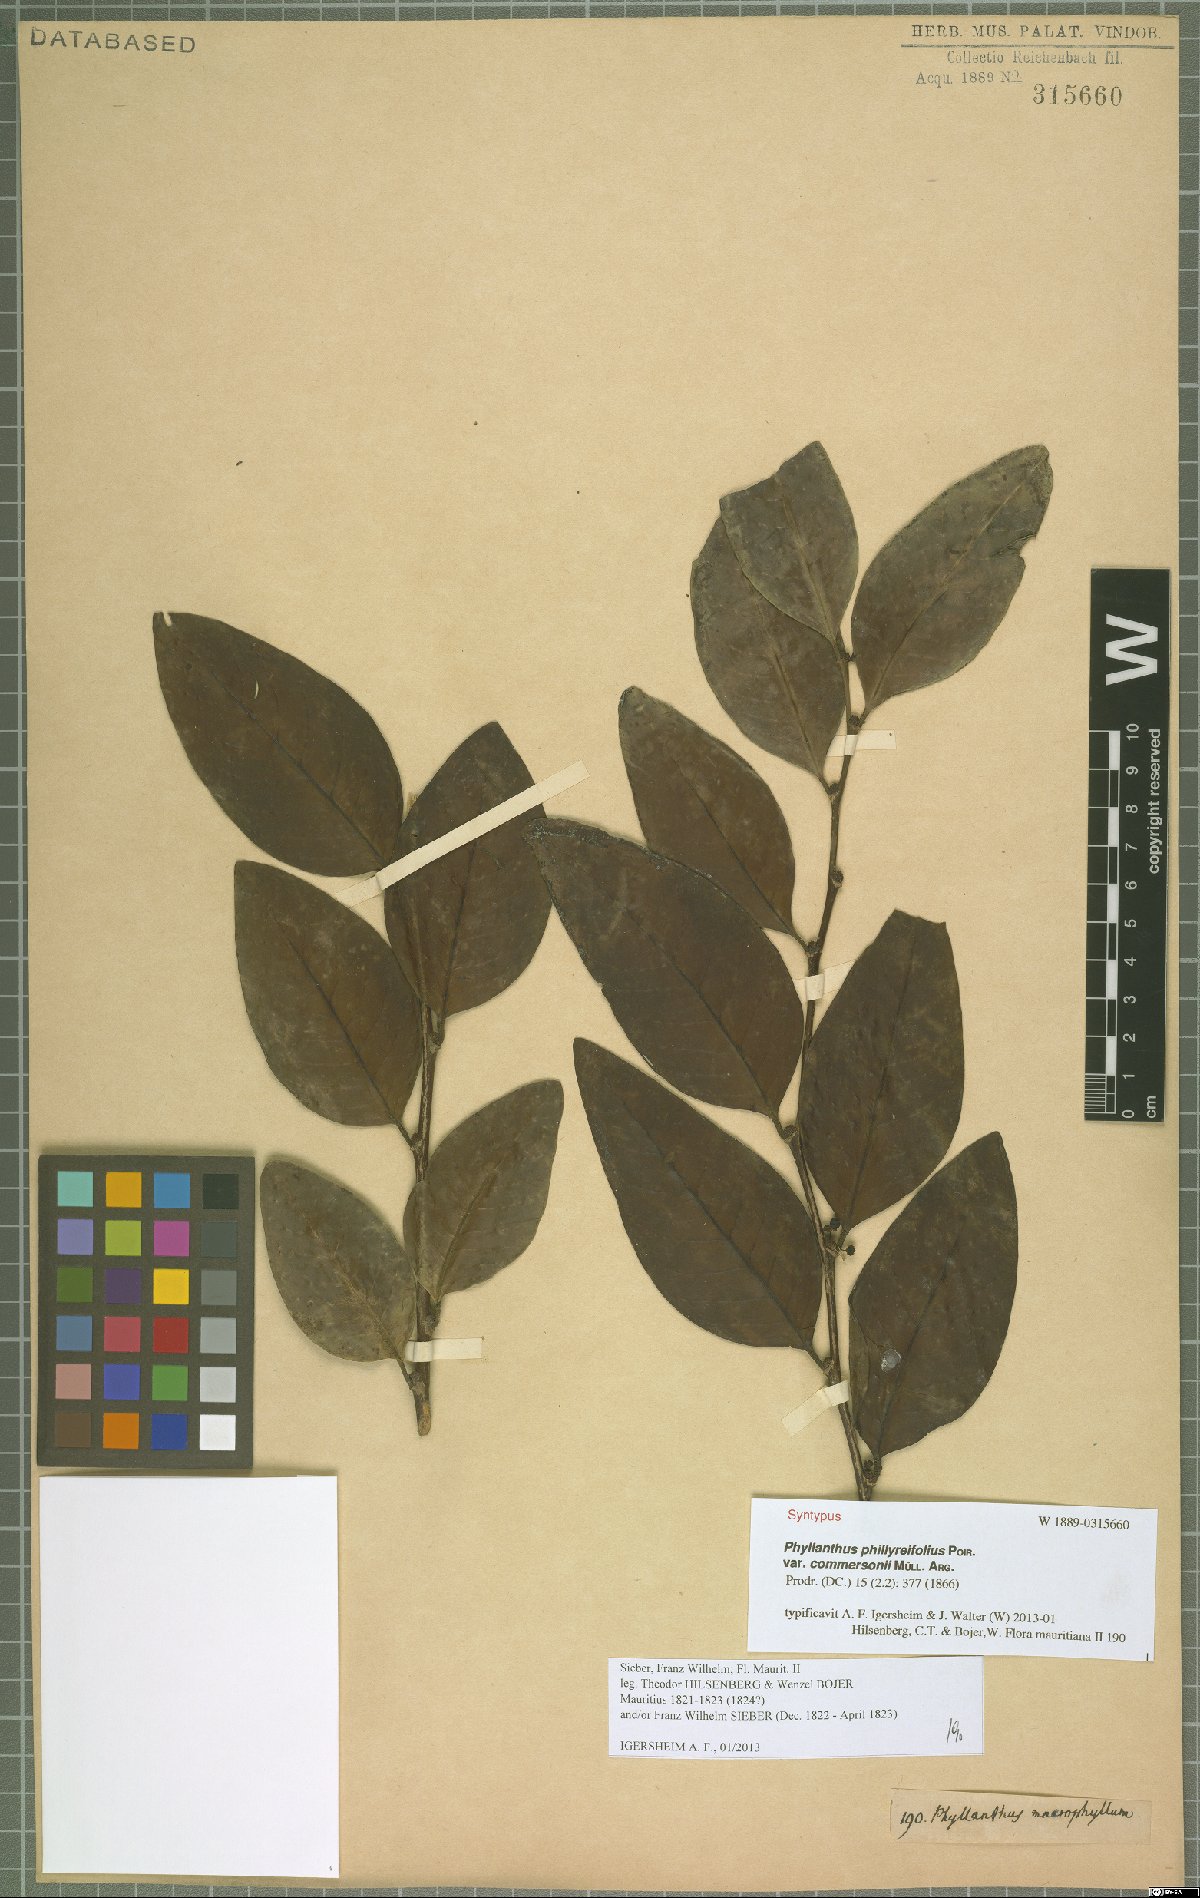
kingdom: Plantae
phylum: Tracheophyta
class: Magnoliopsida
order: Malpighiales
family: Phyllanthaceae
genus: Phyllanthus
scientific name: Phyllanthus phillyreifolius
